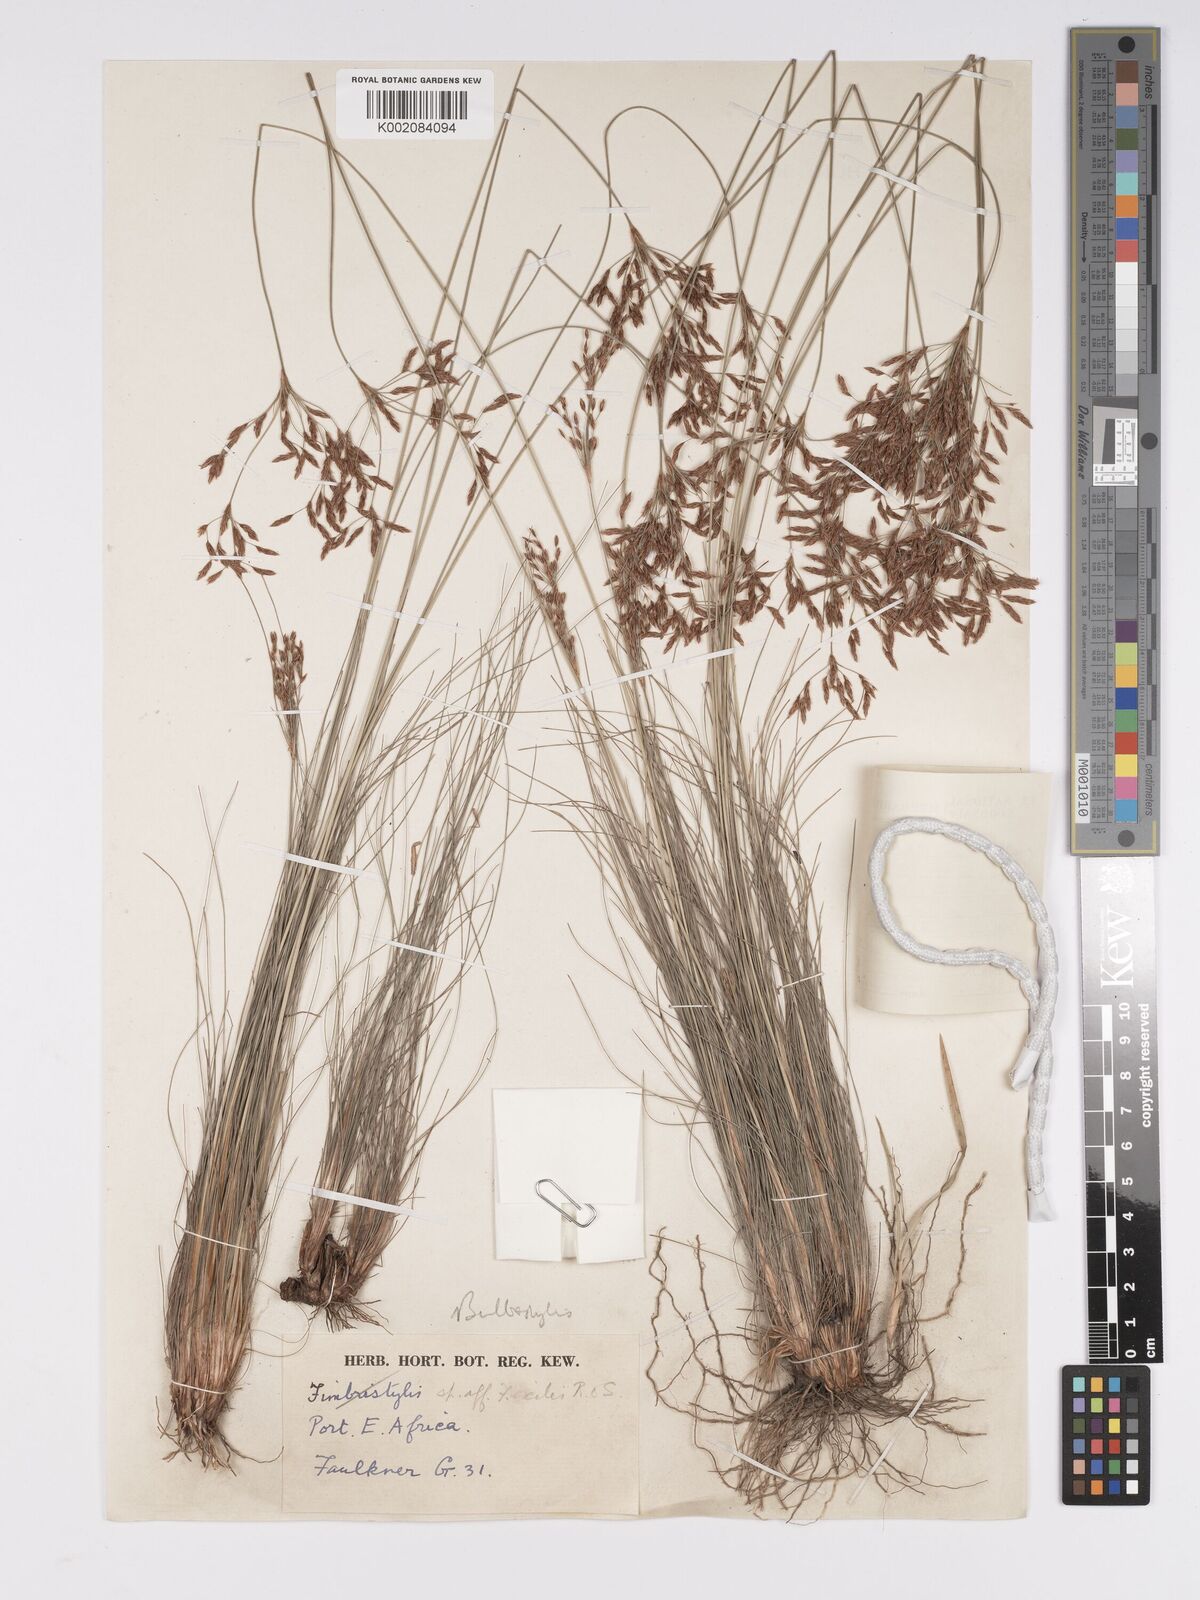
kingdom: Plantae
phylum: Tracheophyta
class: Liliopsida
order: Poales
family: Cyperaceae
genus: Bulbostylis
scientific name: Bulbostylis
